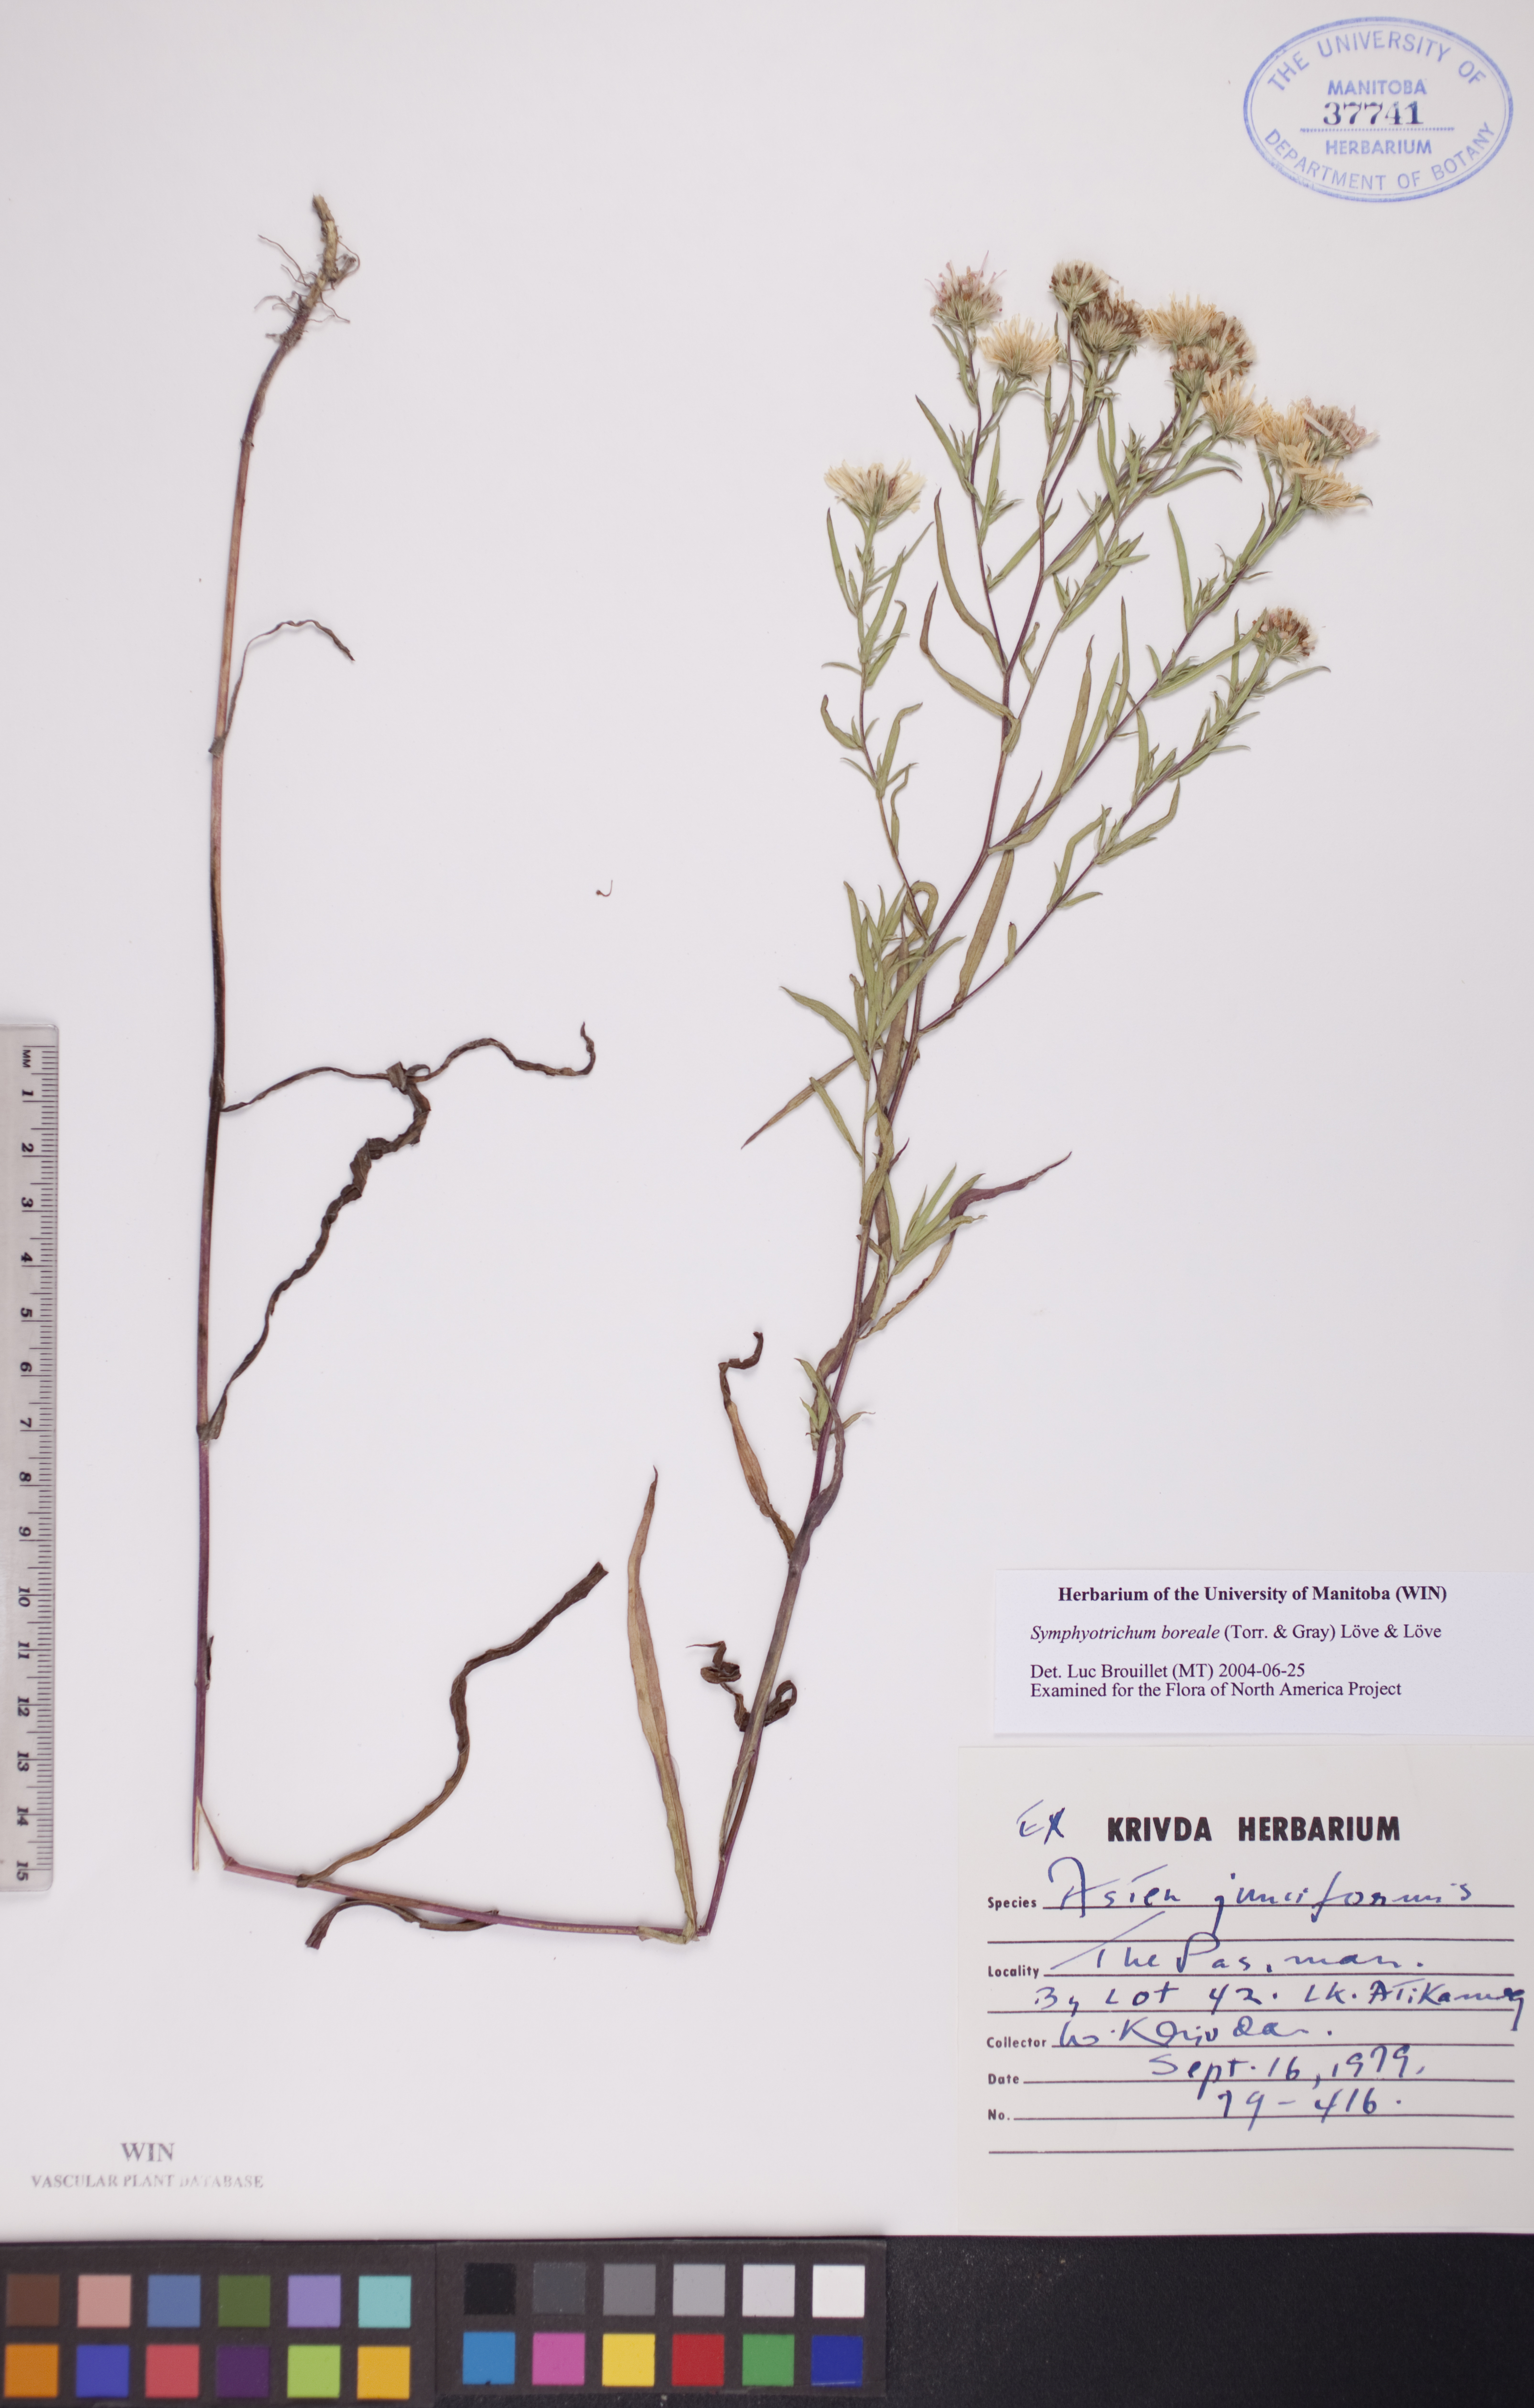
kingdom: Plantae
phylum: Tracheophyta
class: Magnoliopsida
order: Asterales
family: Asteraceae
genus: Symphyotrichum
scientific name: Symphyotrichum boreale
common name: Northern bog aster
